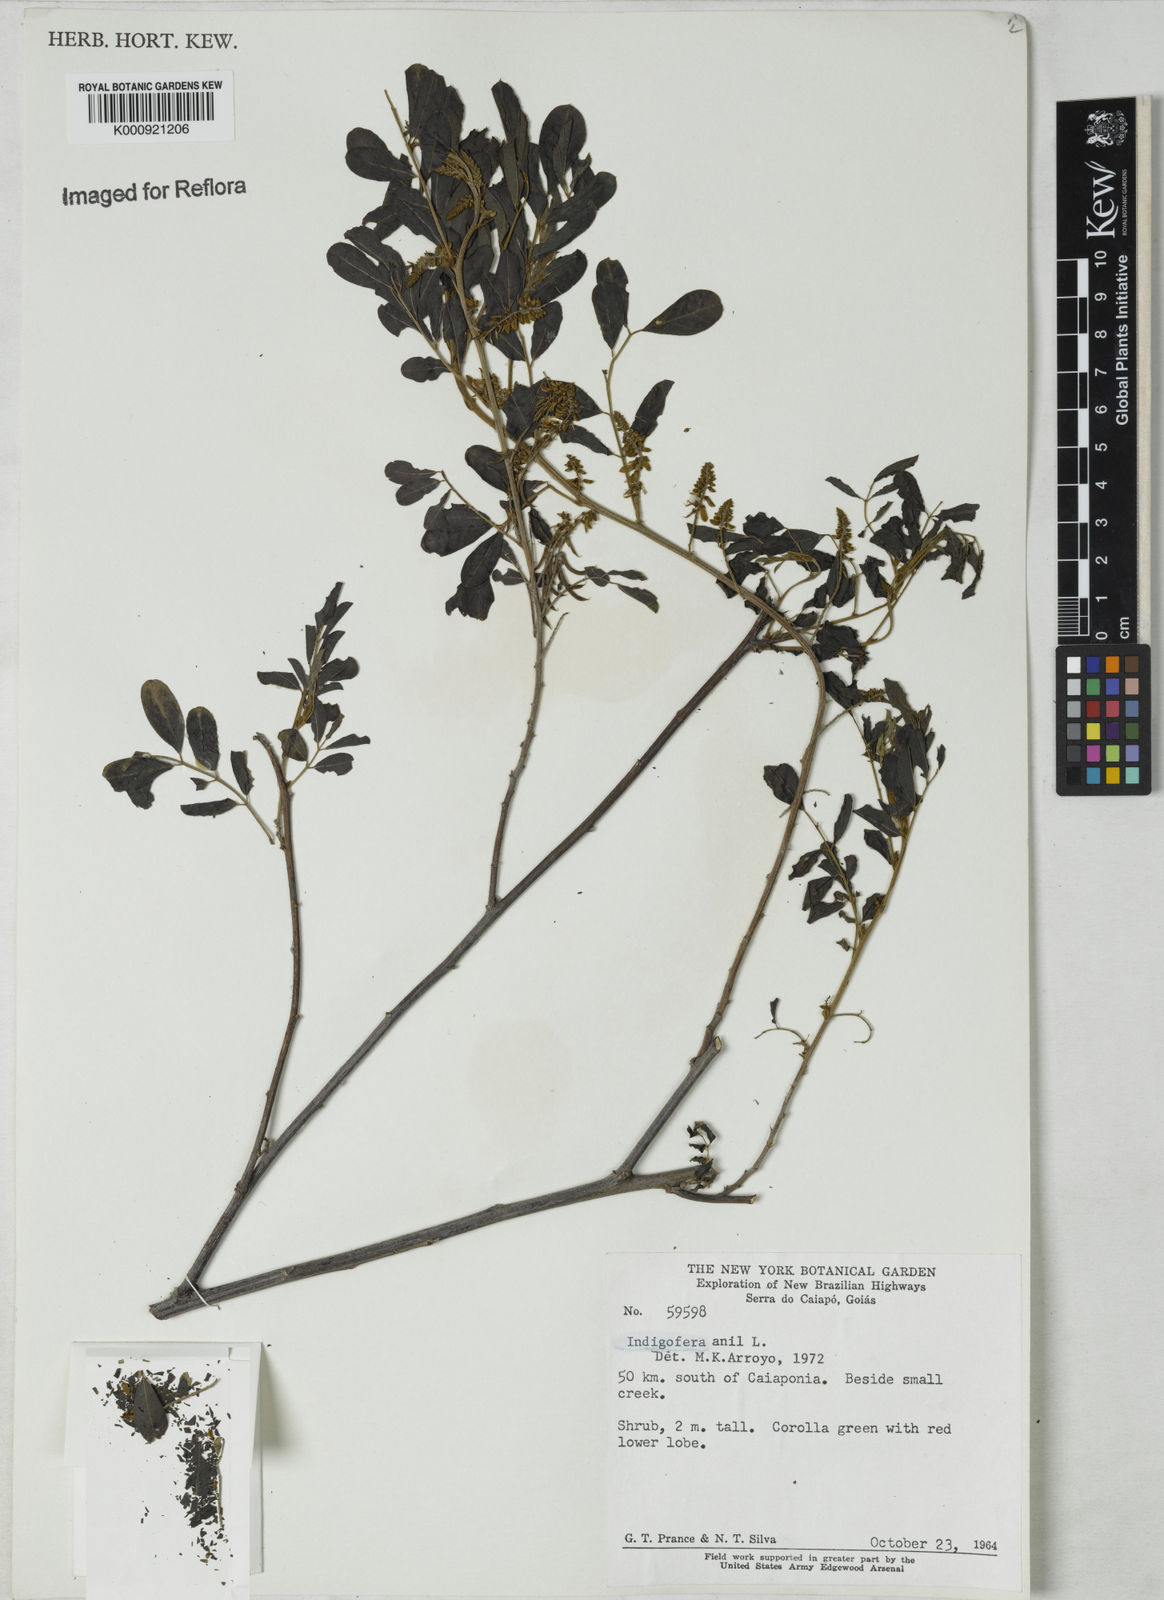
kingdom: Plantae
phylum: Tracheophyta
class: Magnoliopsida
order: Fabales
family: Fabaceae
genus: Indigofera
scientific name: Indigofera suffruticosa
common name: Anil de pasto
